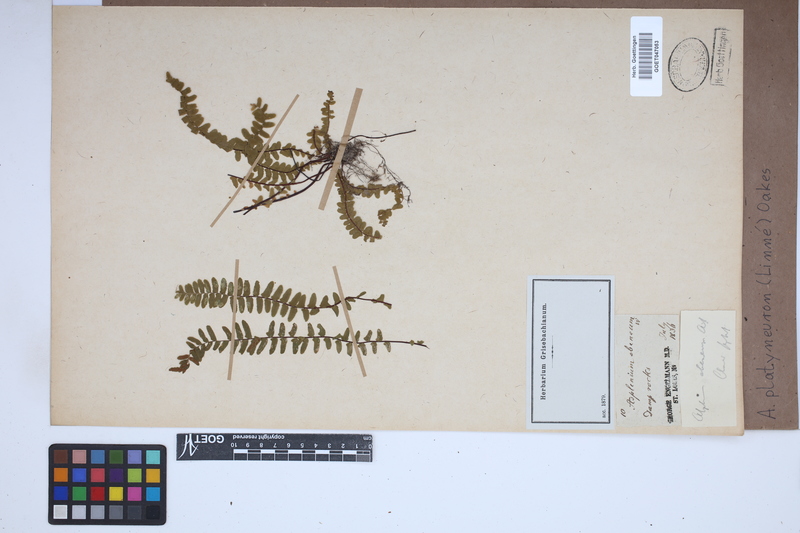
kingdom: Plantae
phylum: Tracheophyta
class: Polypodiopsida
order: Polypodiales
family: Aspleniaceae
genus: Asplenium
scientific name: Asplenium platyneuron
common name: Ebony spleenwort
